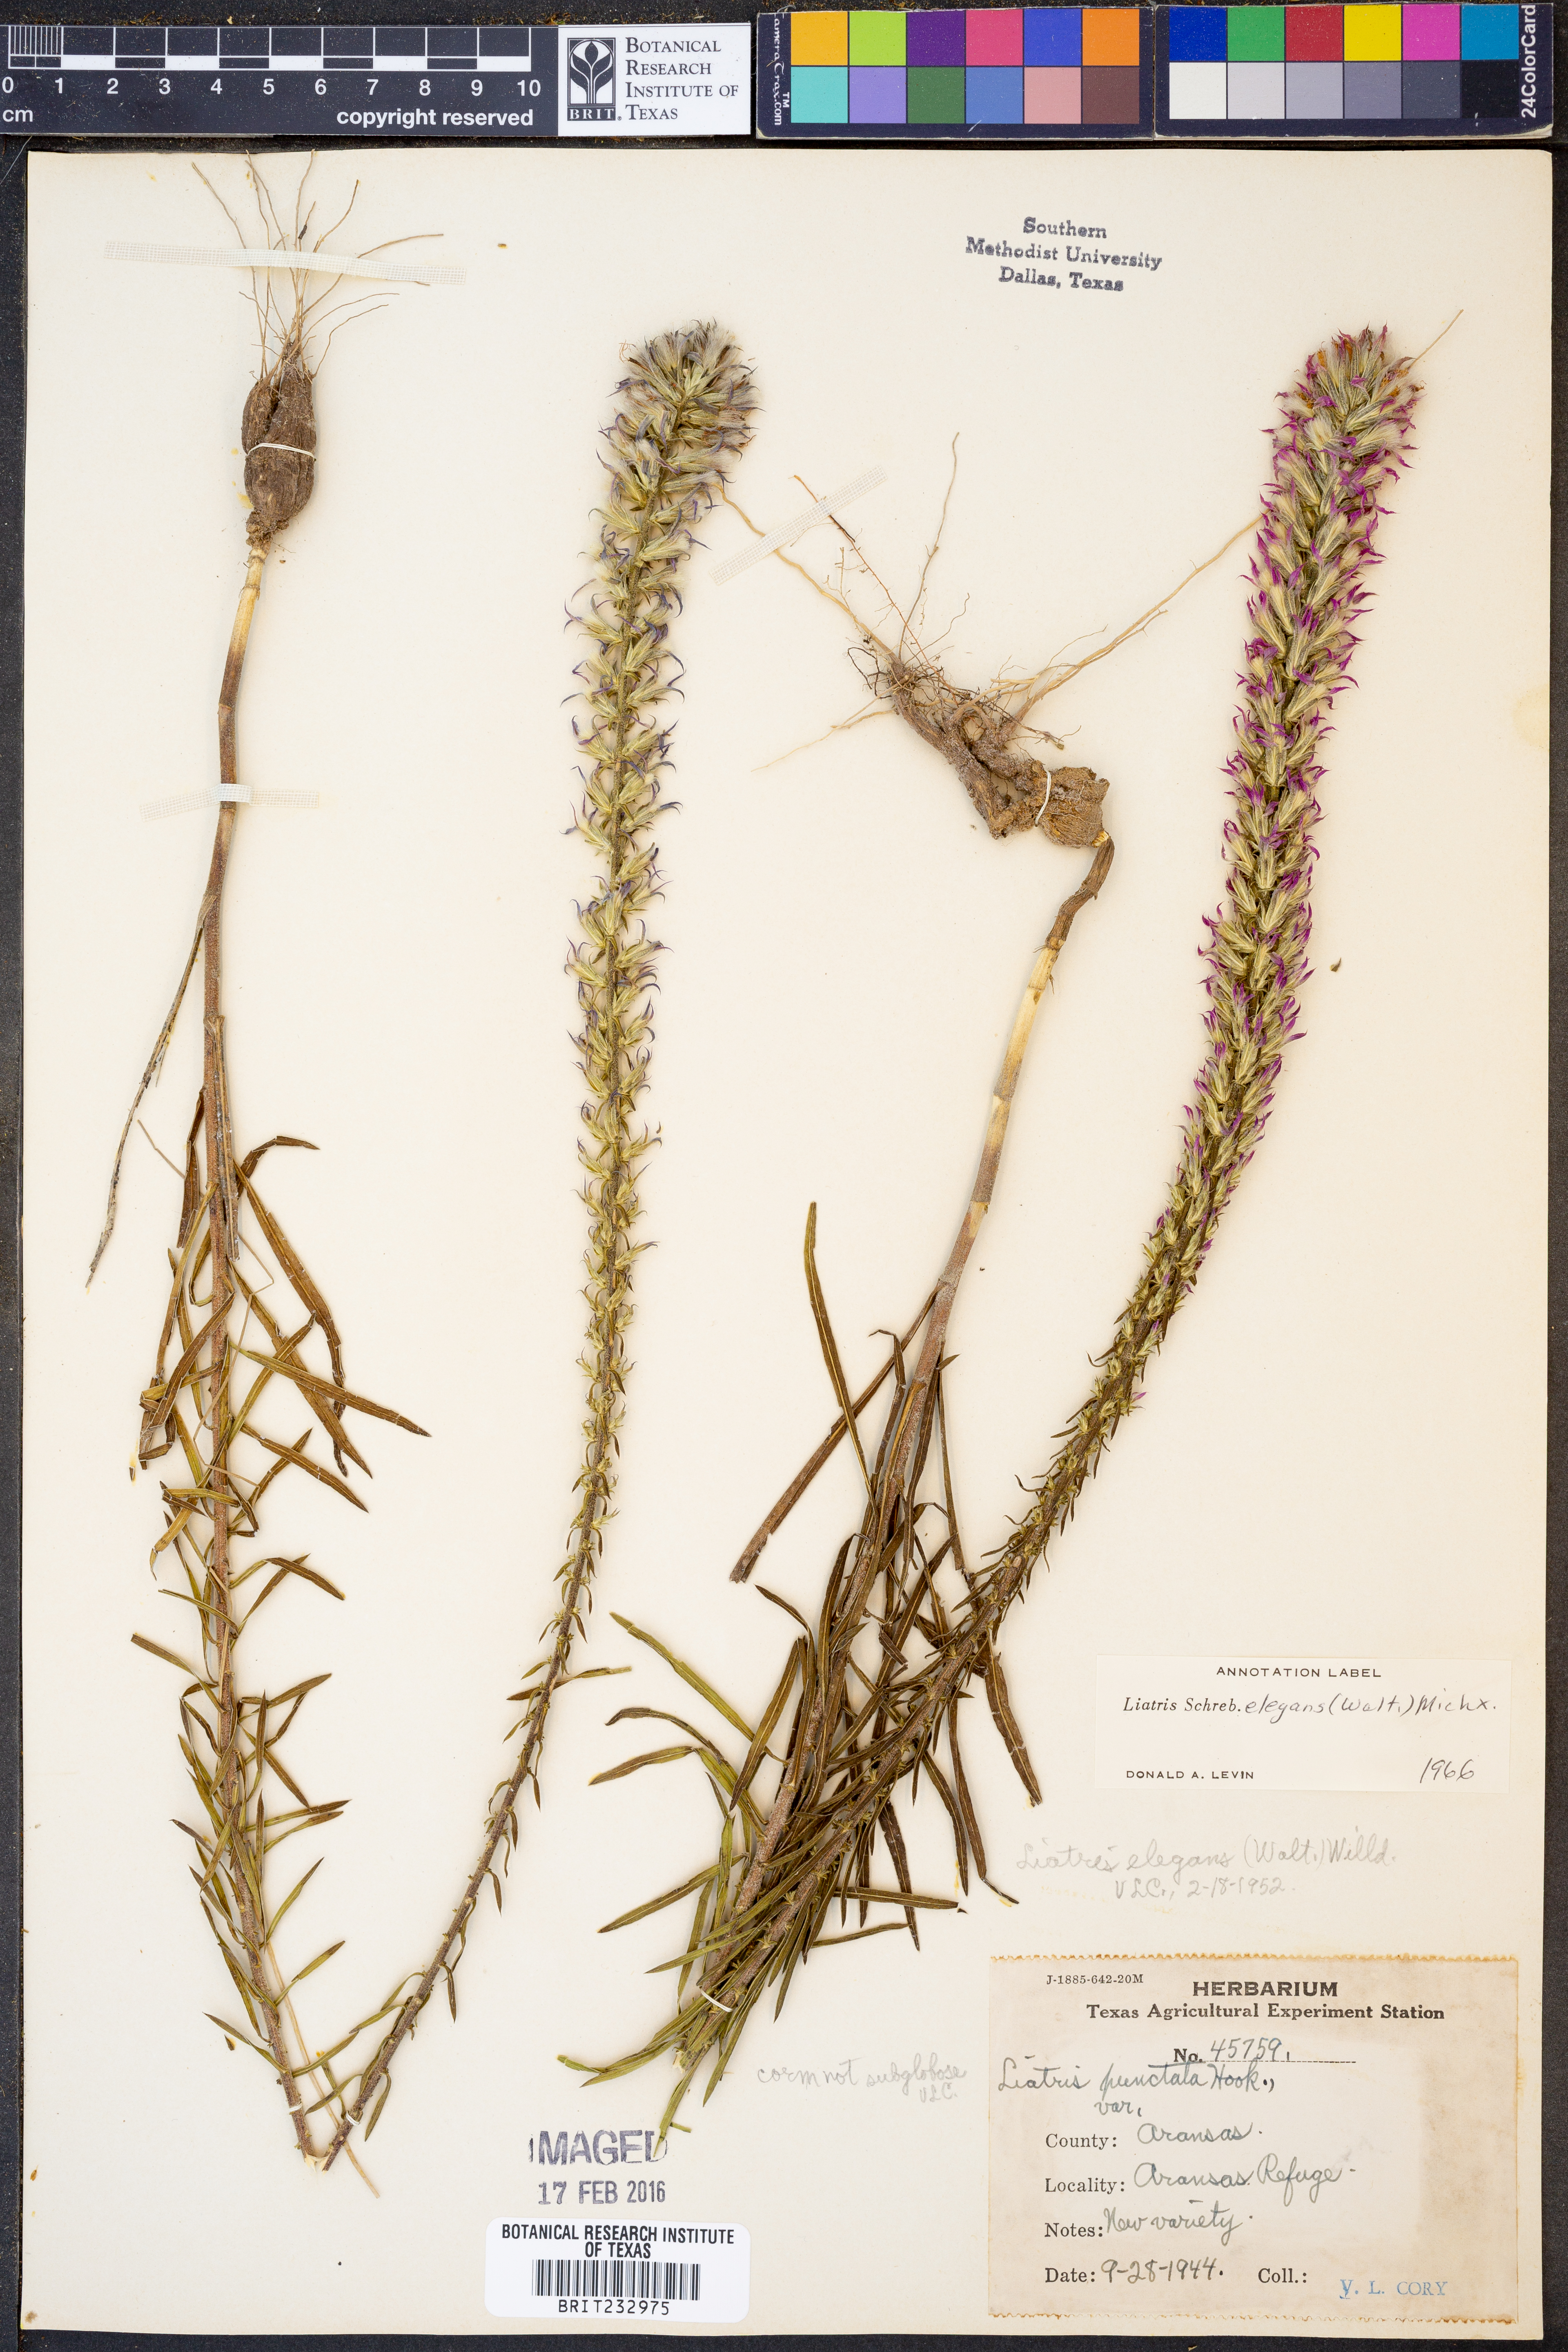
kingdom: Plantae
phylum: Tracheophyta
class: Magnoliopsida
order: Asterales
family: Asteraceae
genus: Liatris
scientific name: Liatris elegans
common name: Pinkscale gayfeather
